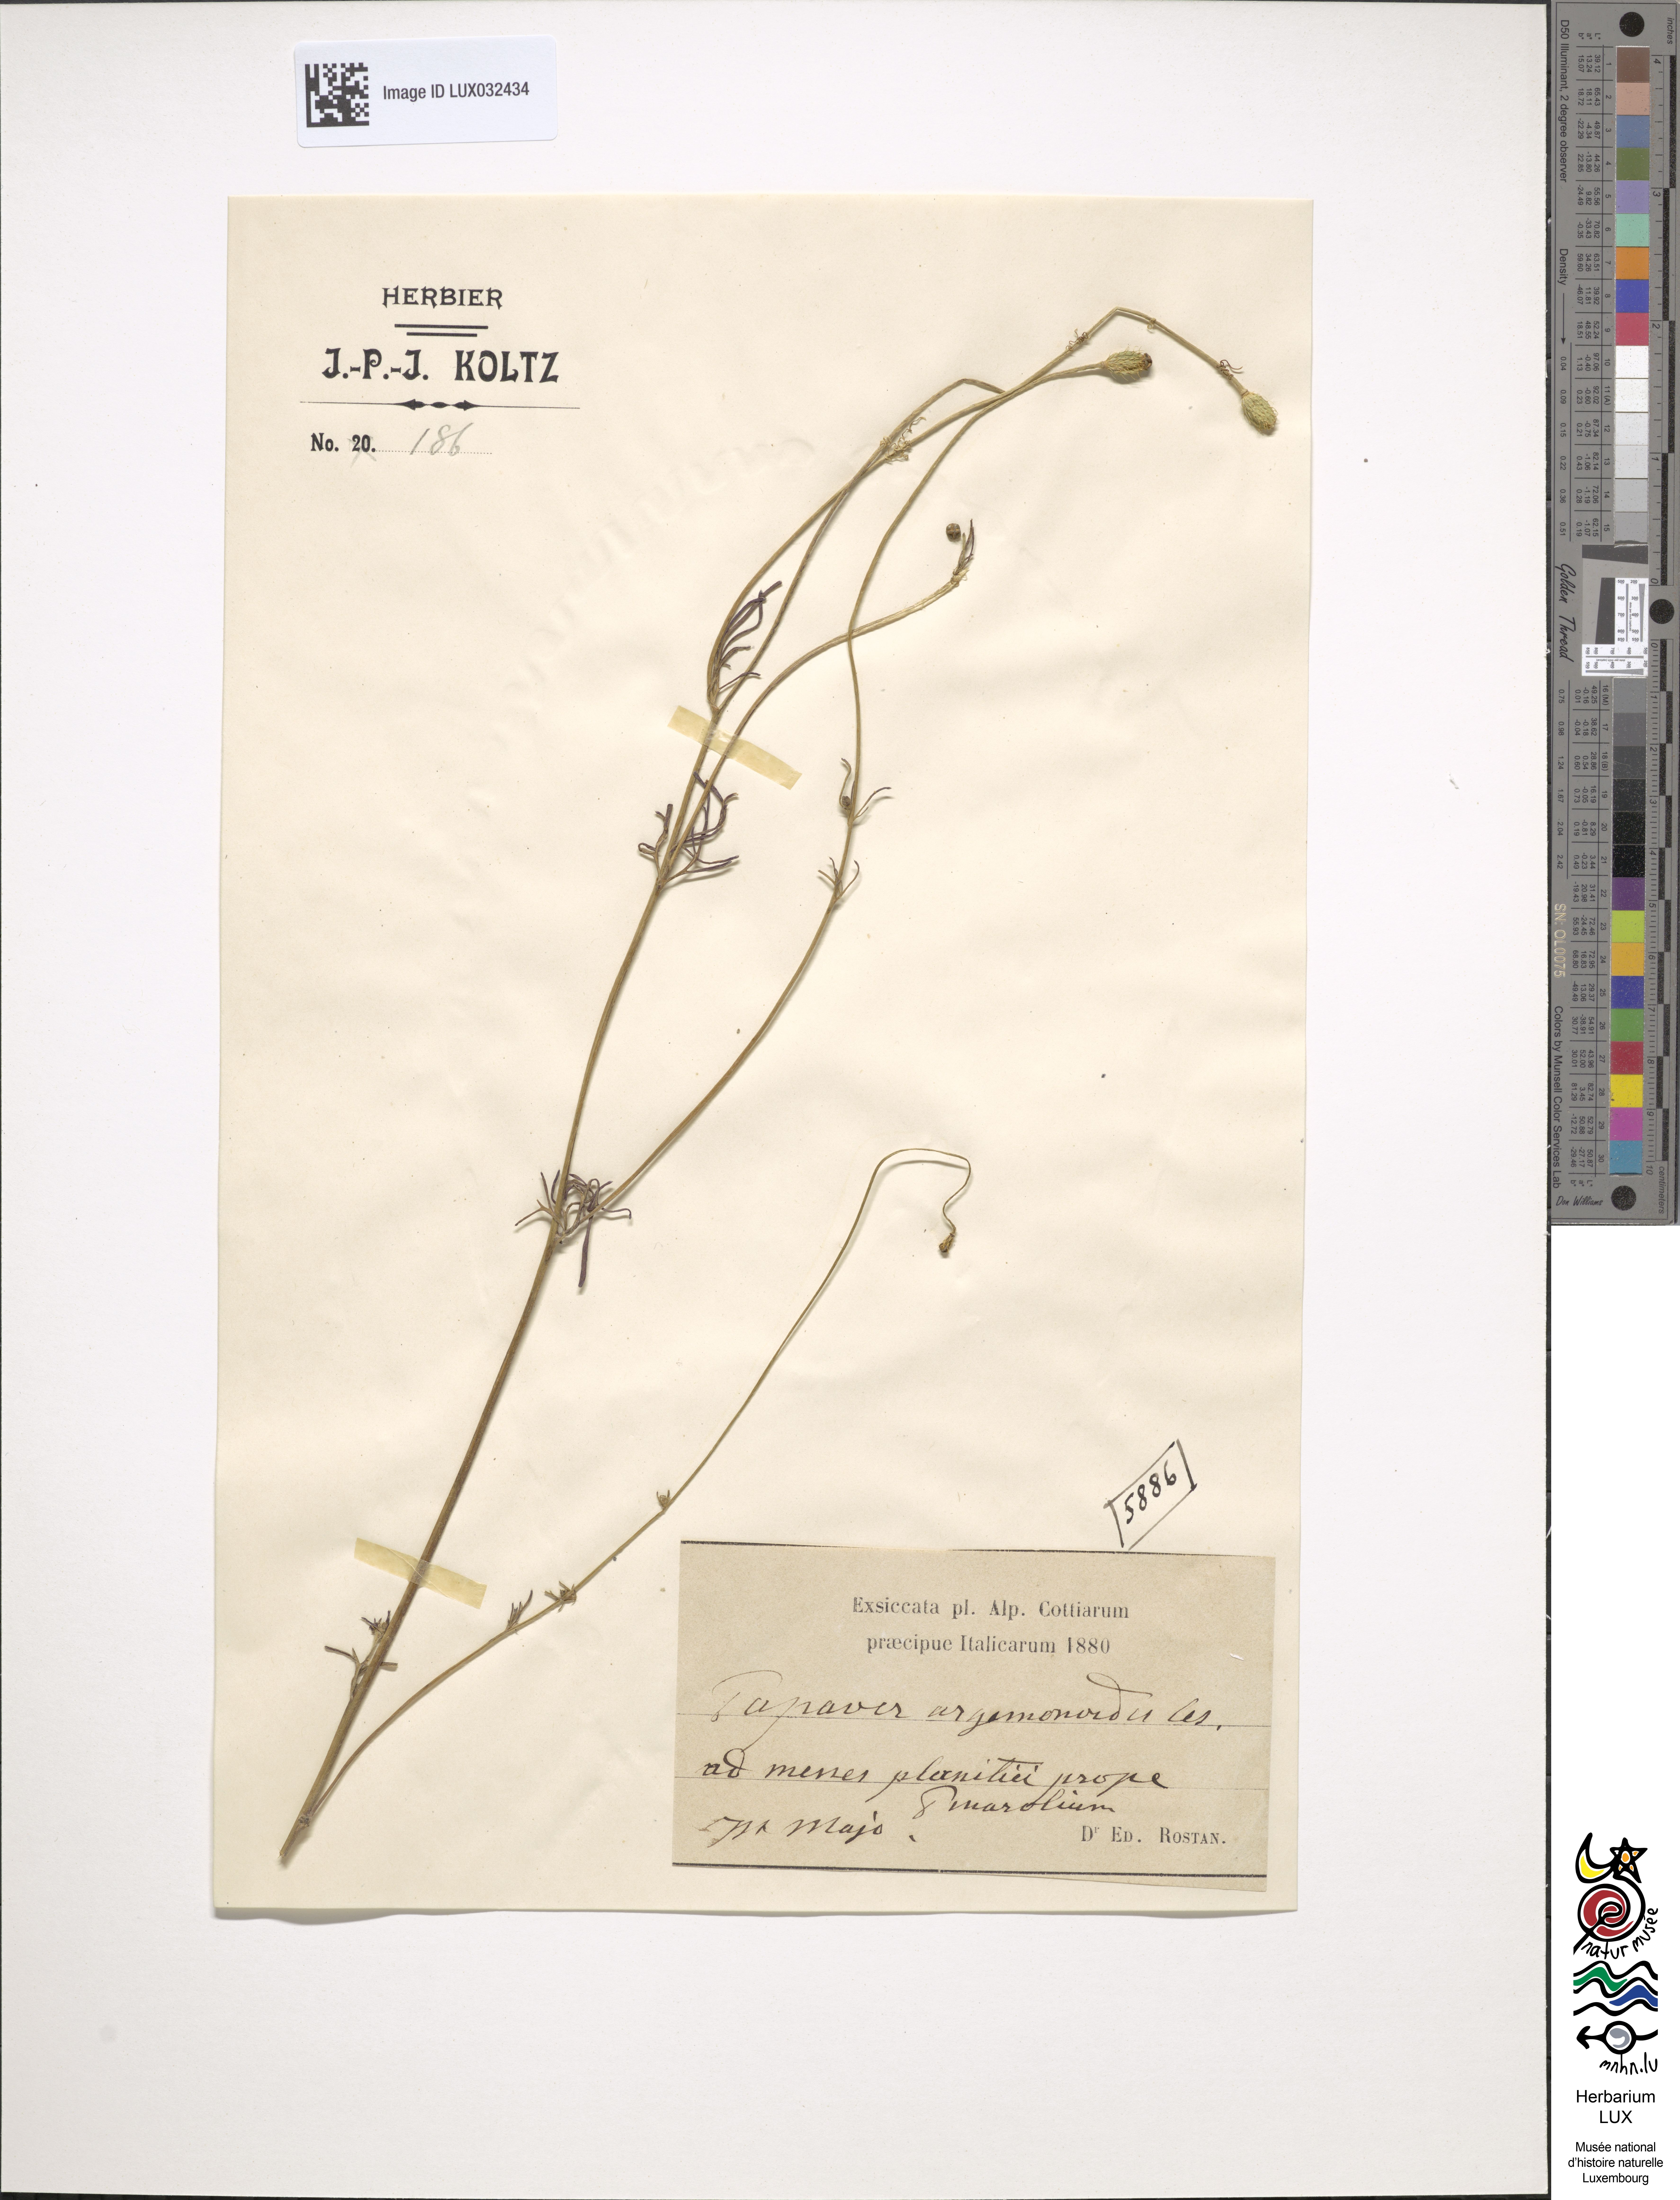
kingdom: Plantae
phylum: Tracheophyta
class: Magnoliopsida
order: Ranunculales
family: Papaveraceae
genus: Papaver
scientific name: Papaver
